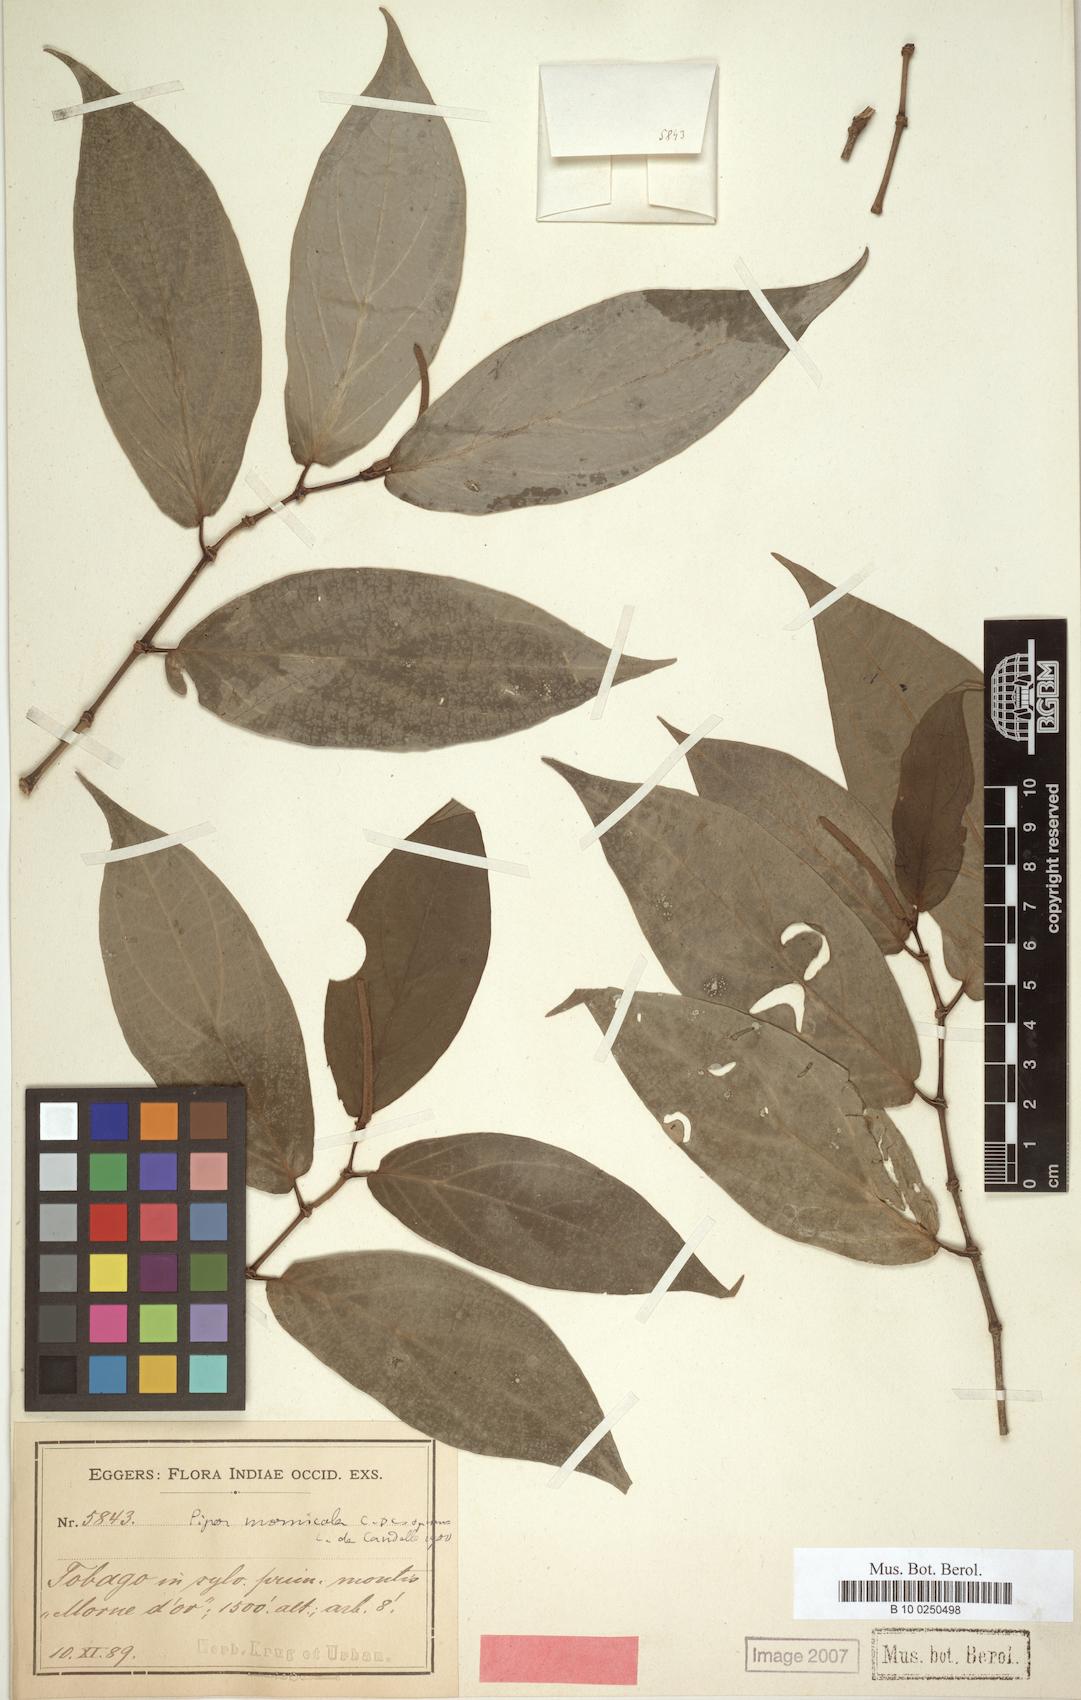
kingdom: Plantae
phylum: Tracheophyta
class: Magnoliopsida
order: Piperales
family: Piperaceae
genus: Piper
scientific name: Piper mornicola
